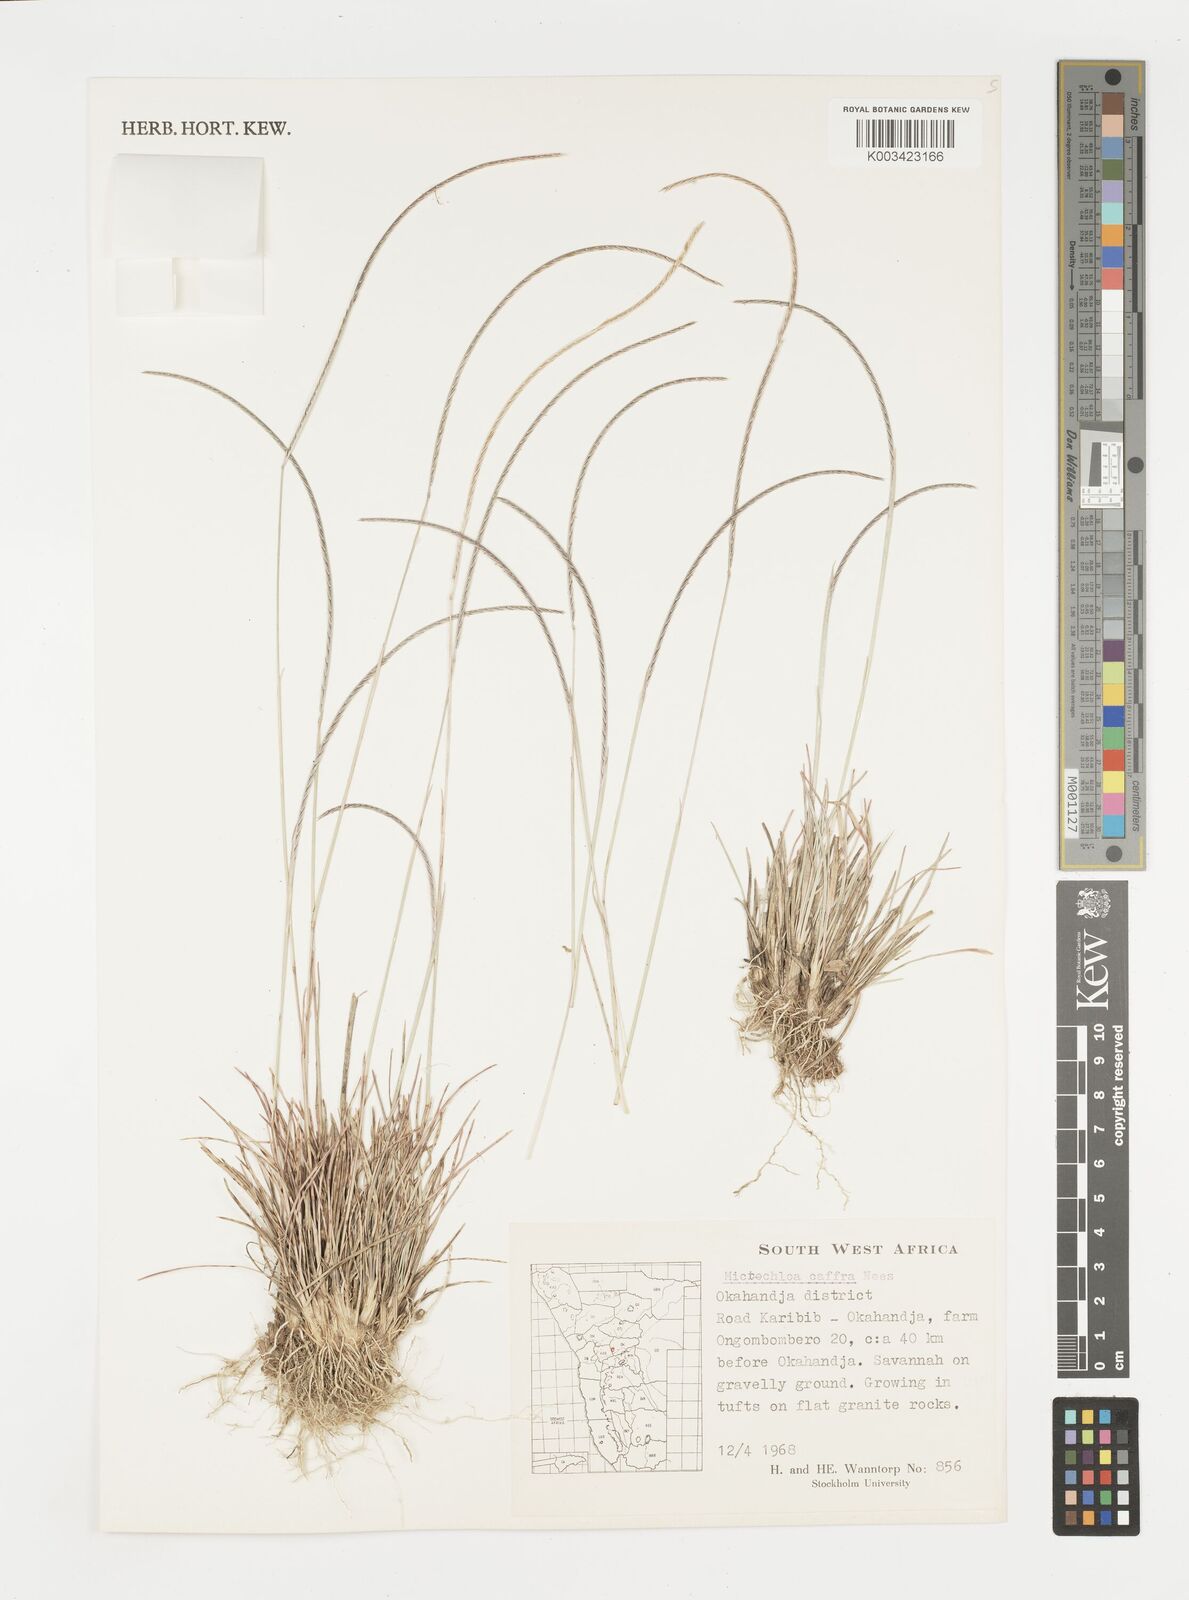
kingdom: Plantae
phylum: Tracheophyta
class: Liliopsida
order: Poales
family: Poaceae
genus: Microchloa
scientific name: Microchloa caffra
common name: Pincushion grass
